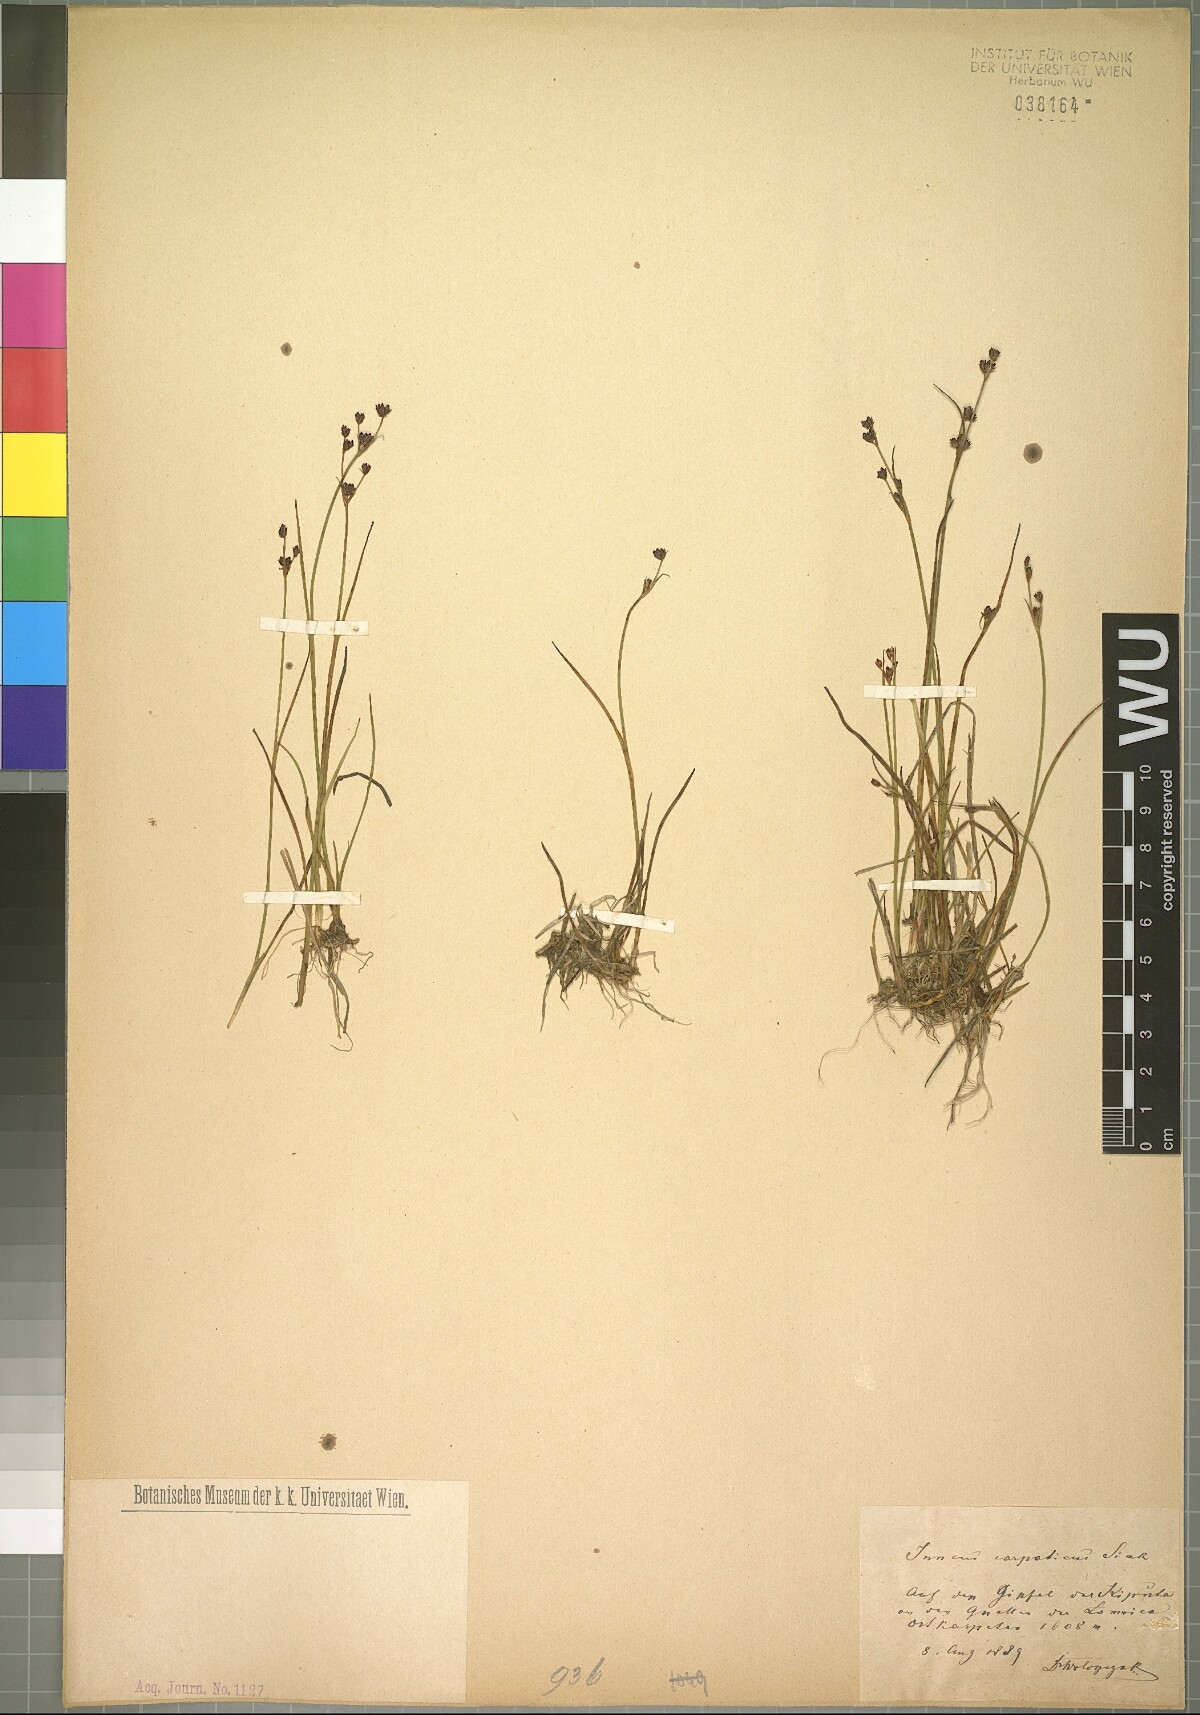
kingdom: Plantae
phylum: Tracheophyta
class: Liliopsida
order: Poales
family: Juncaceae
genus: Juncus
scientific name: Juncus alpinoarticulatus
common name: Alpine rush
